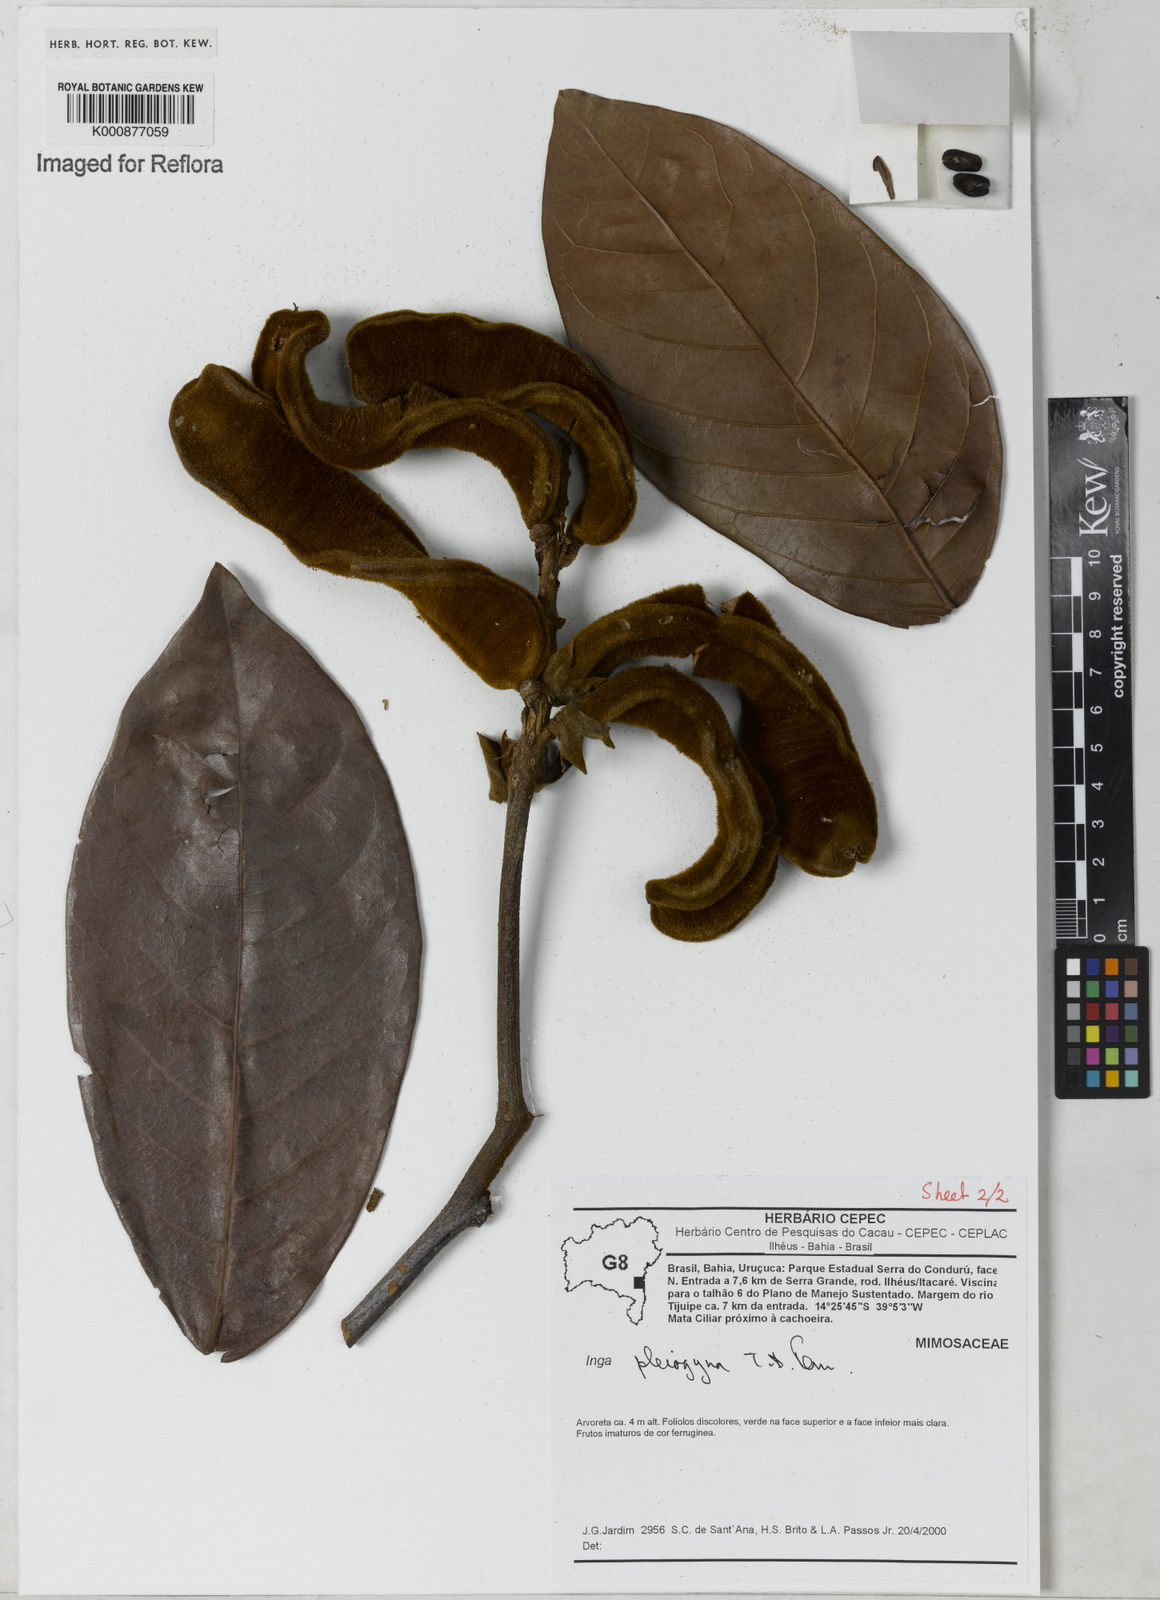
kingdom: Plantae
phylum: Tracheophyta
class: Magnoliopsida
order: Fabales
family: Fabaceae
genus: Inga
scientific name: Inga pleiogyna
